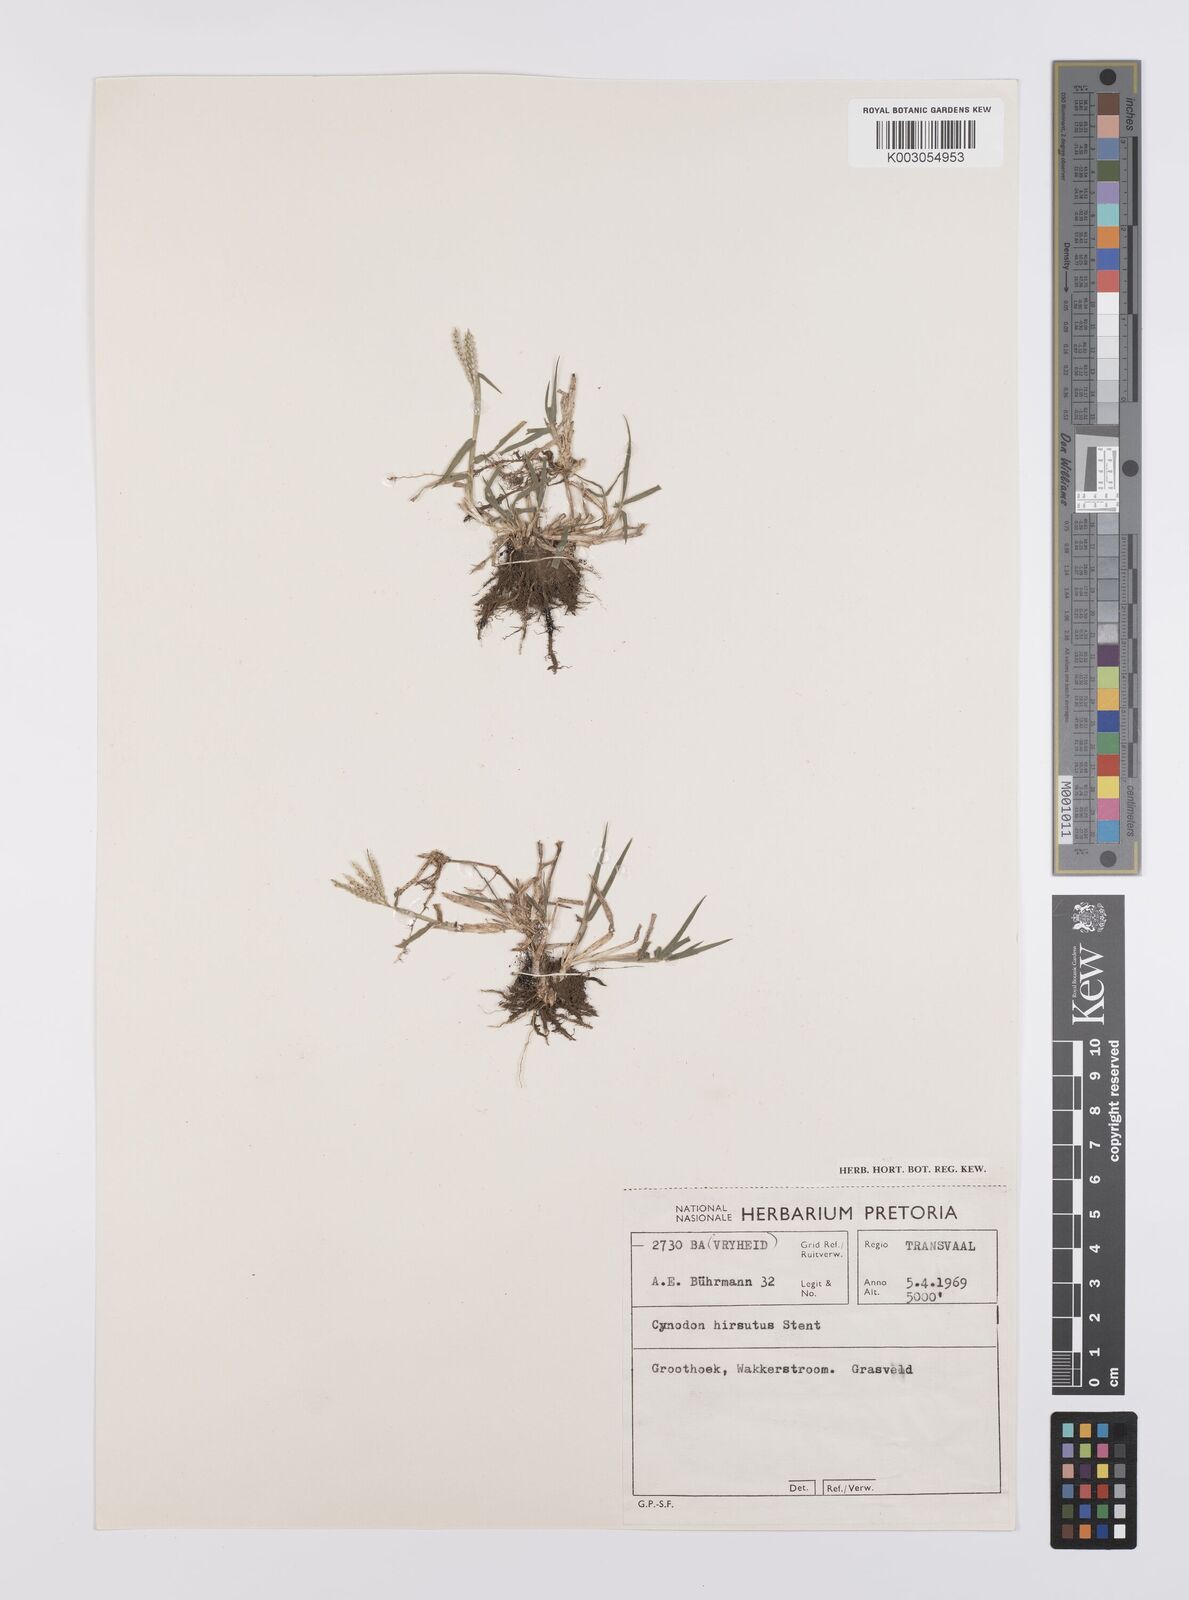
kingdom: Plantae
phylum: Tracheophyta
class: Liliopsida
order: Poales
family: Poaceae
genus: Cynodon
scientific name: Cynodon incompletus
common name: African bermuda-grass
